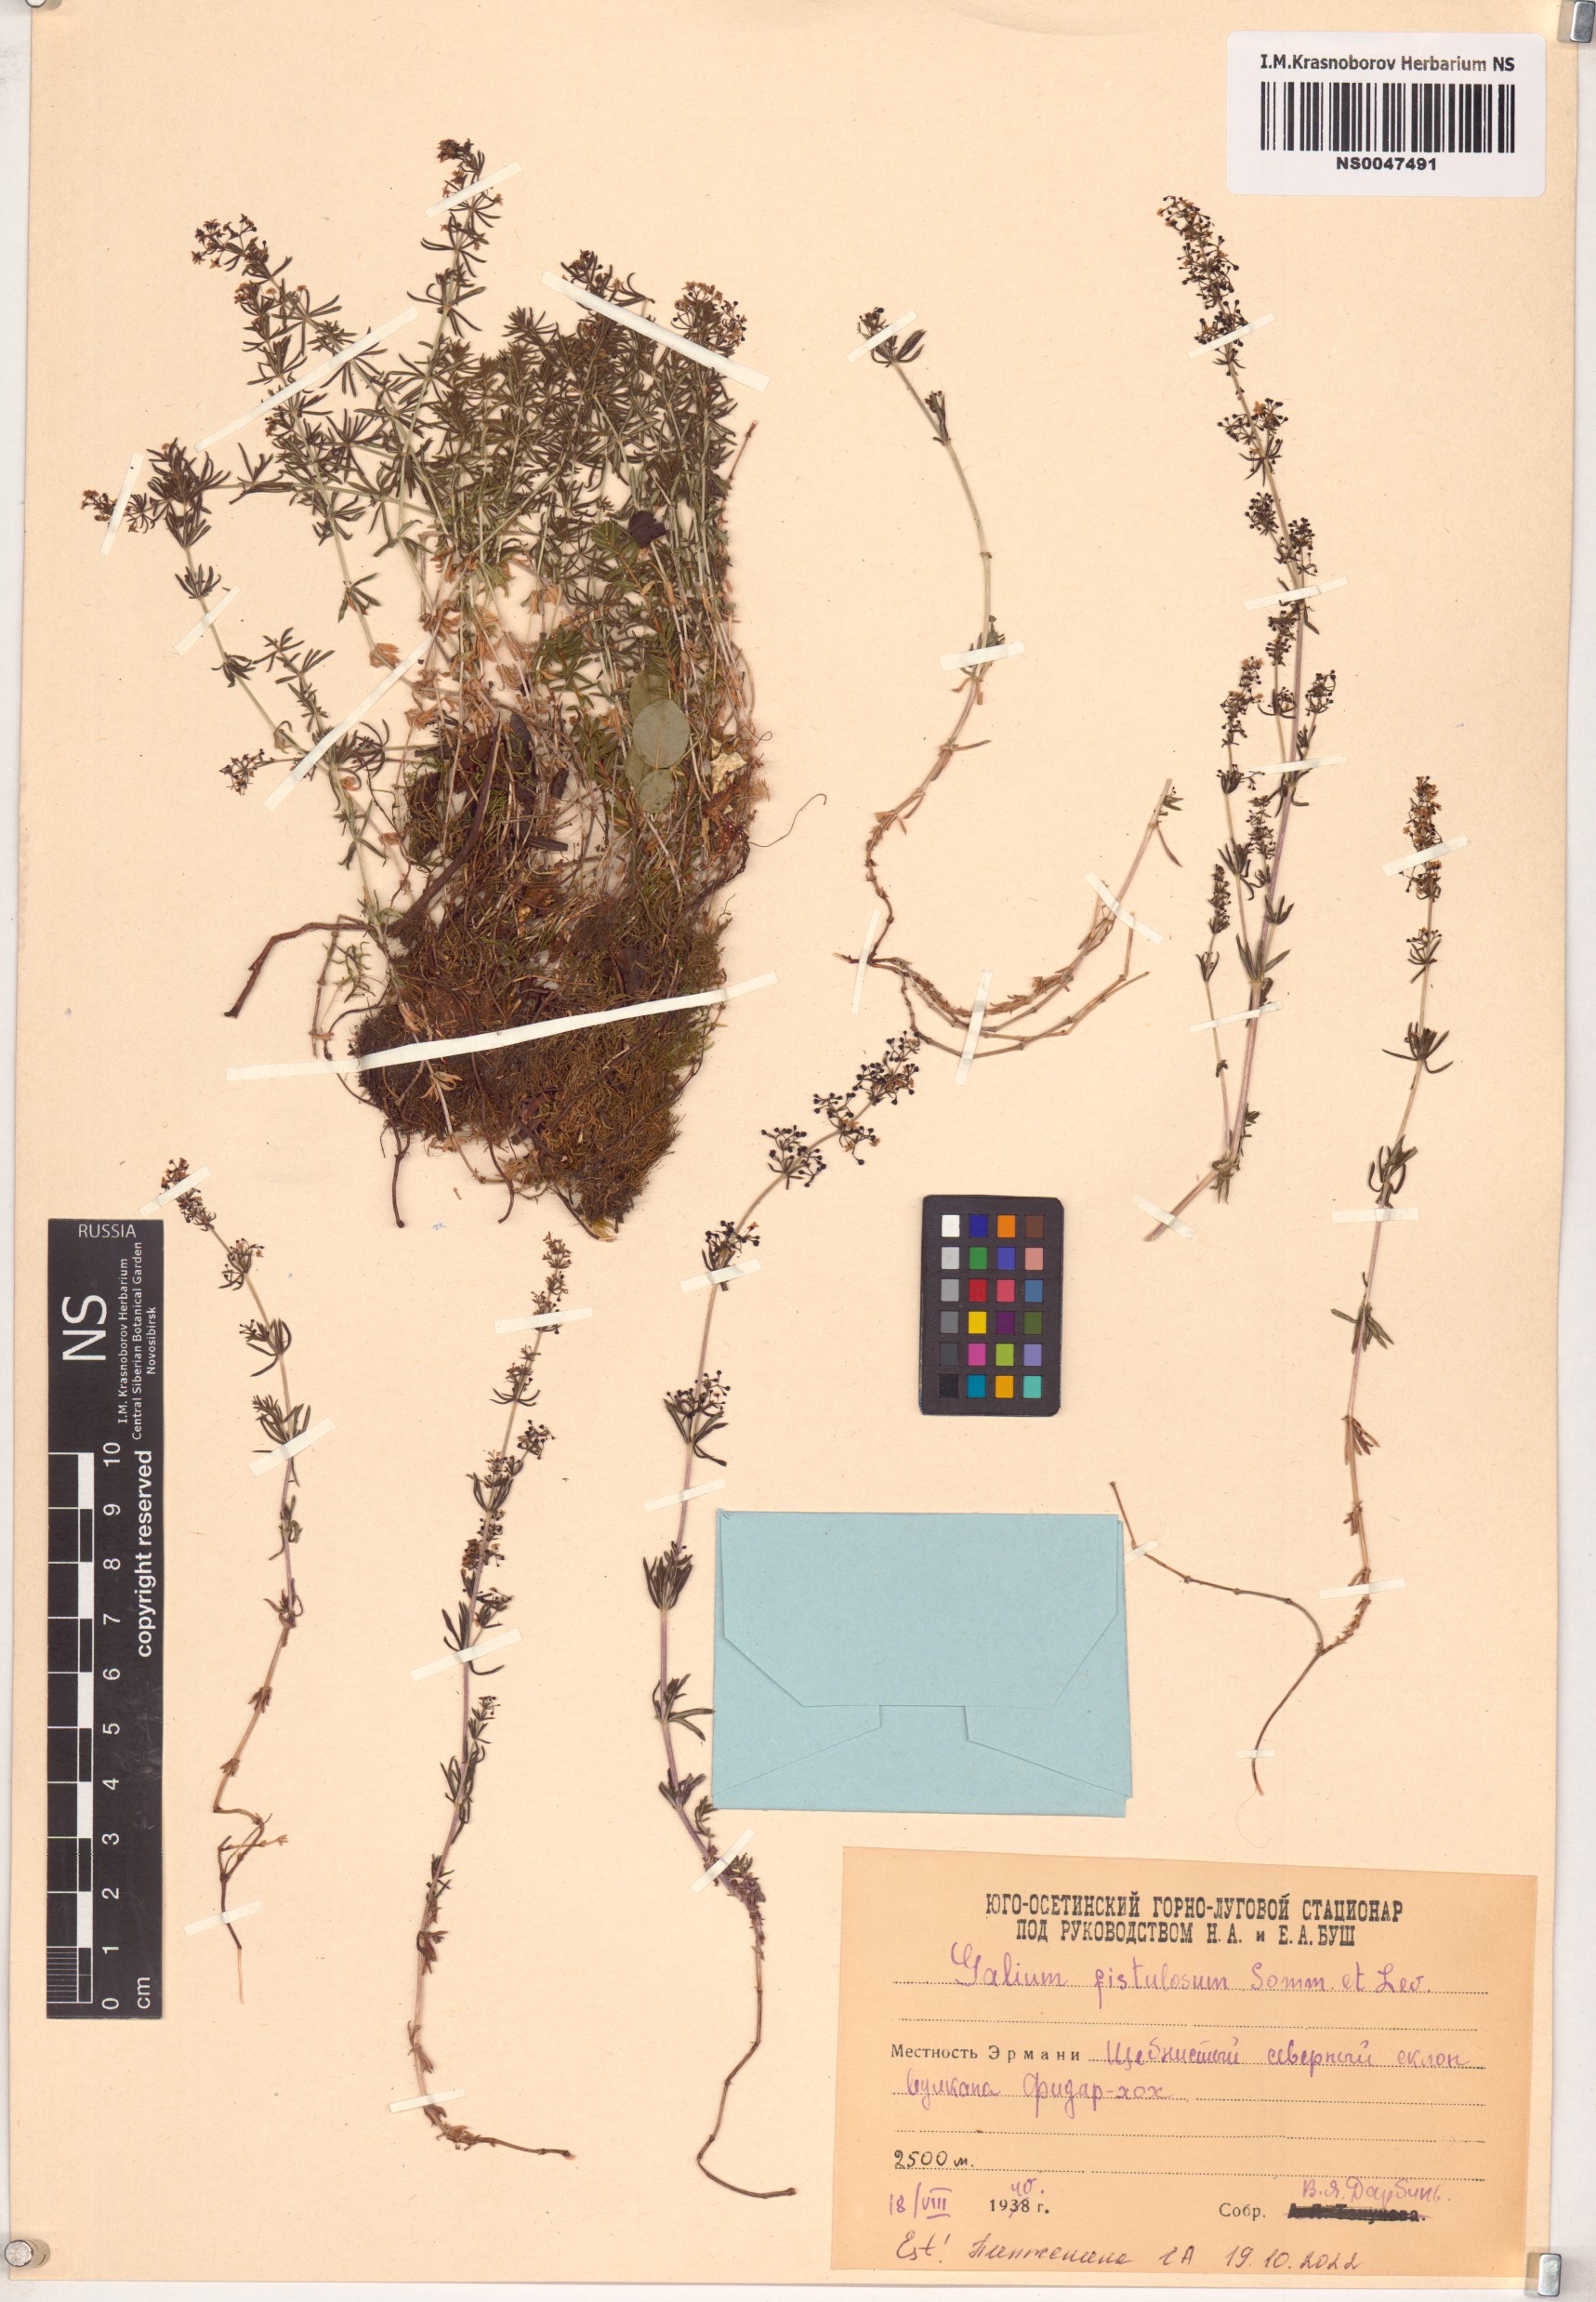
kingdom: Plantae
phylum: Tracheophyta
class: Magnoliopsida
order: Gentianales
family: Rubiaceae
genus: Galium
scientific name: Galium fistulosum
